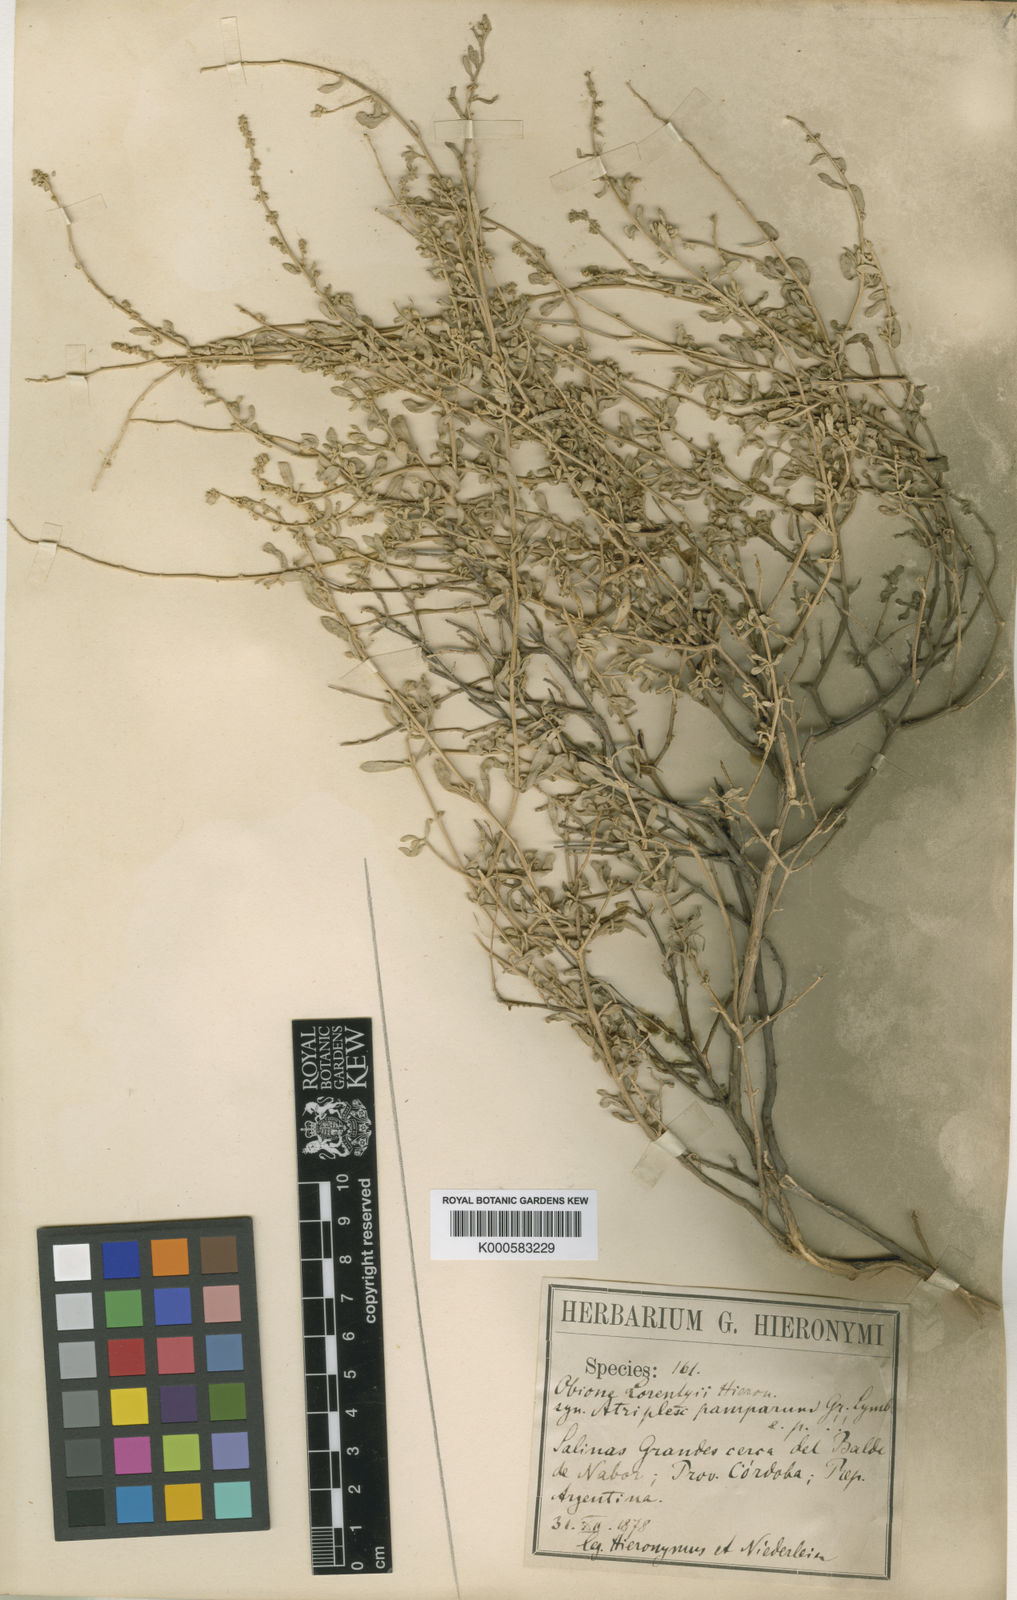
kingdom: Plantae
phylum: Tracheophyta
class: Magnoliopsida
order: Caryophyllales
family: Amaranthaceae
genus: Atriplex
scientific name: Atriplex pamparum
